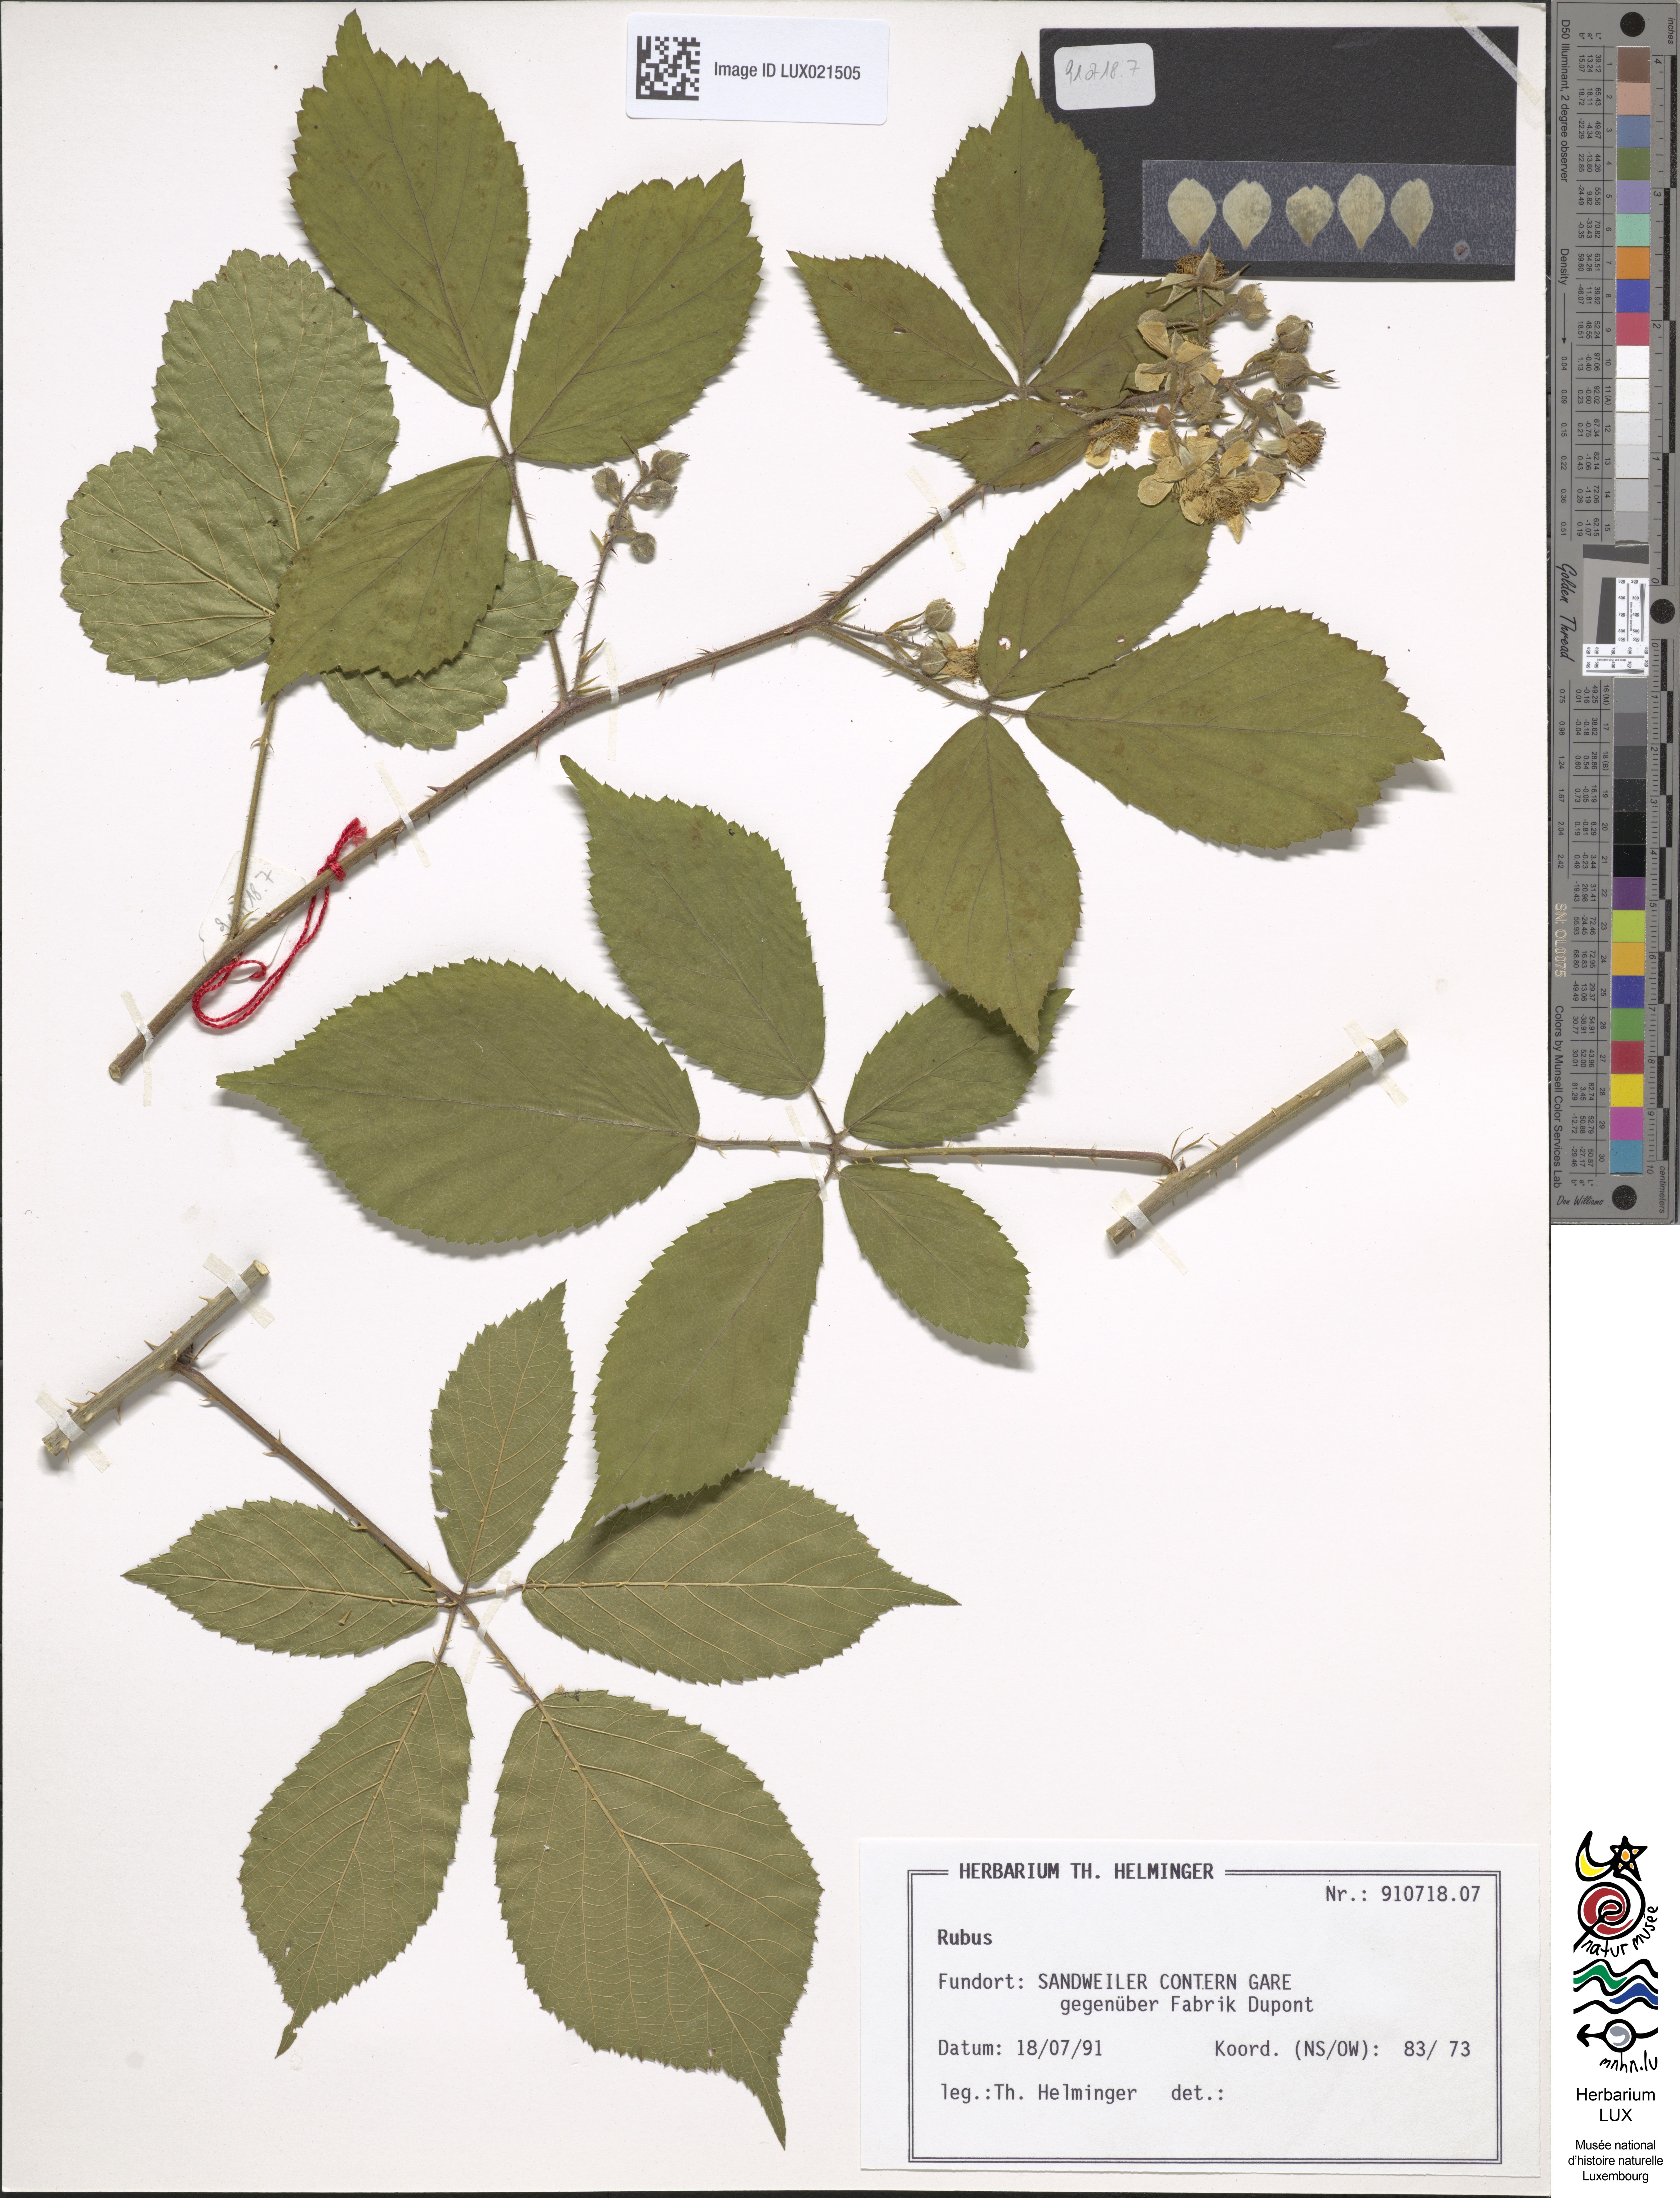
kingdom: Plantae
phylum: Tracheophyta
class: Magnoliopsida
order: Rosales
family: Rosaceae
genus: Rubus
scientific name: Rubus
